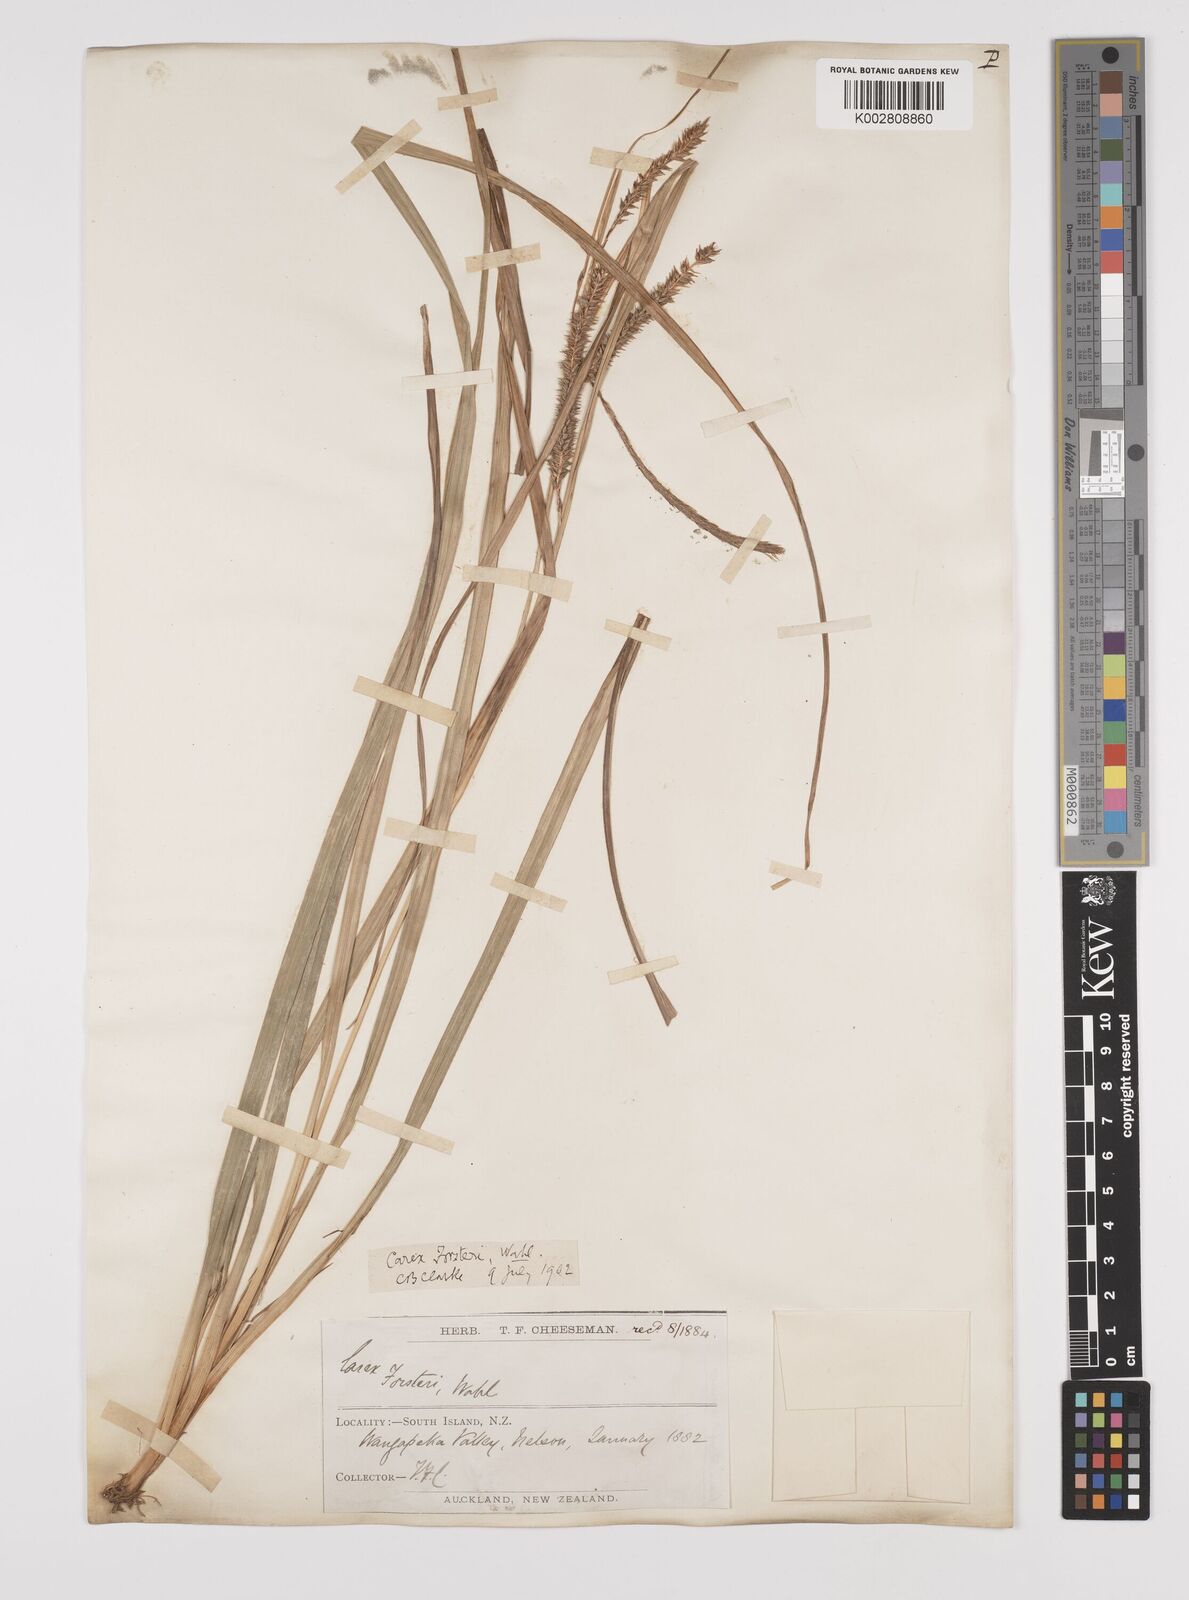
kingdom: Plantae
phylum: Tracheophyta
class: Liliopsida
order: Poales
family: Cyperaceae
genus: Carex
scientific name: Carex forsteri
